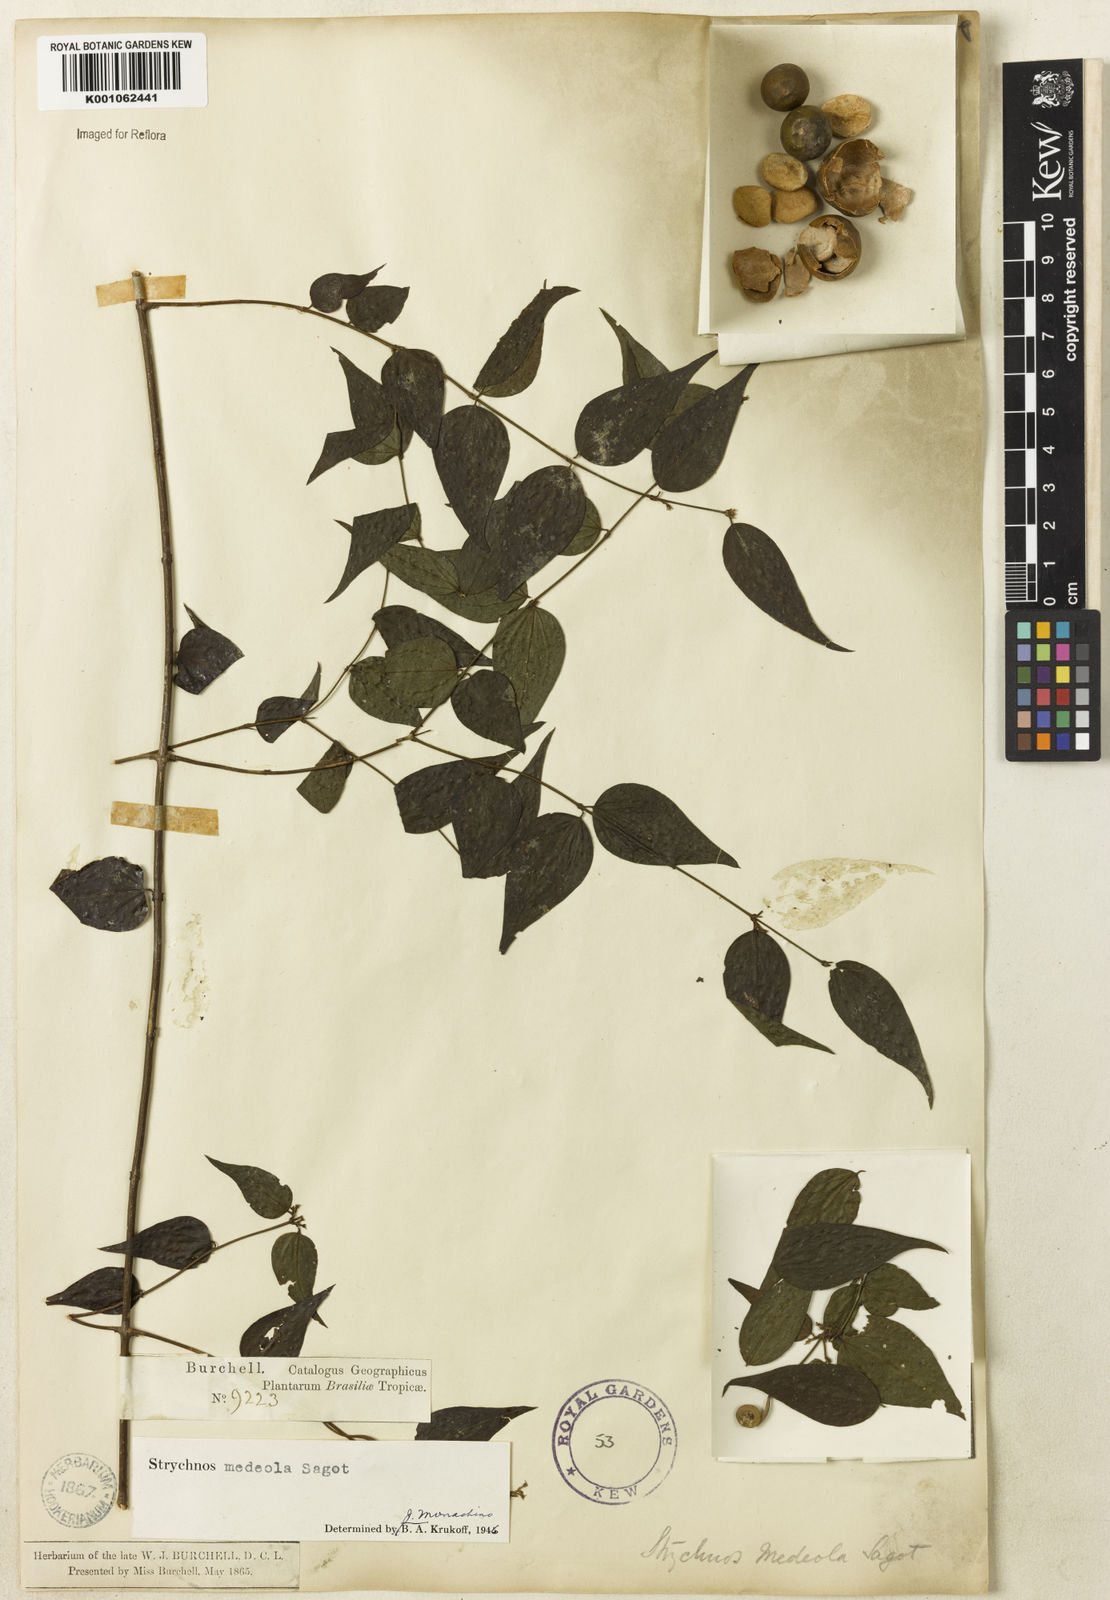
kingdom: Plantae
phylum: Tracheophyta
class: Magnoliopsida
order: Gentianales
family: Loganiaceae
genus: Strychnos
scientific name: Strychnos medeola
